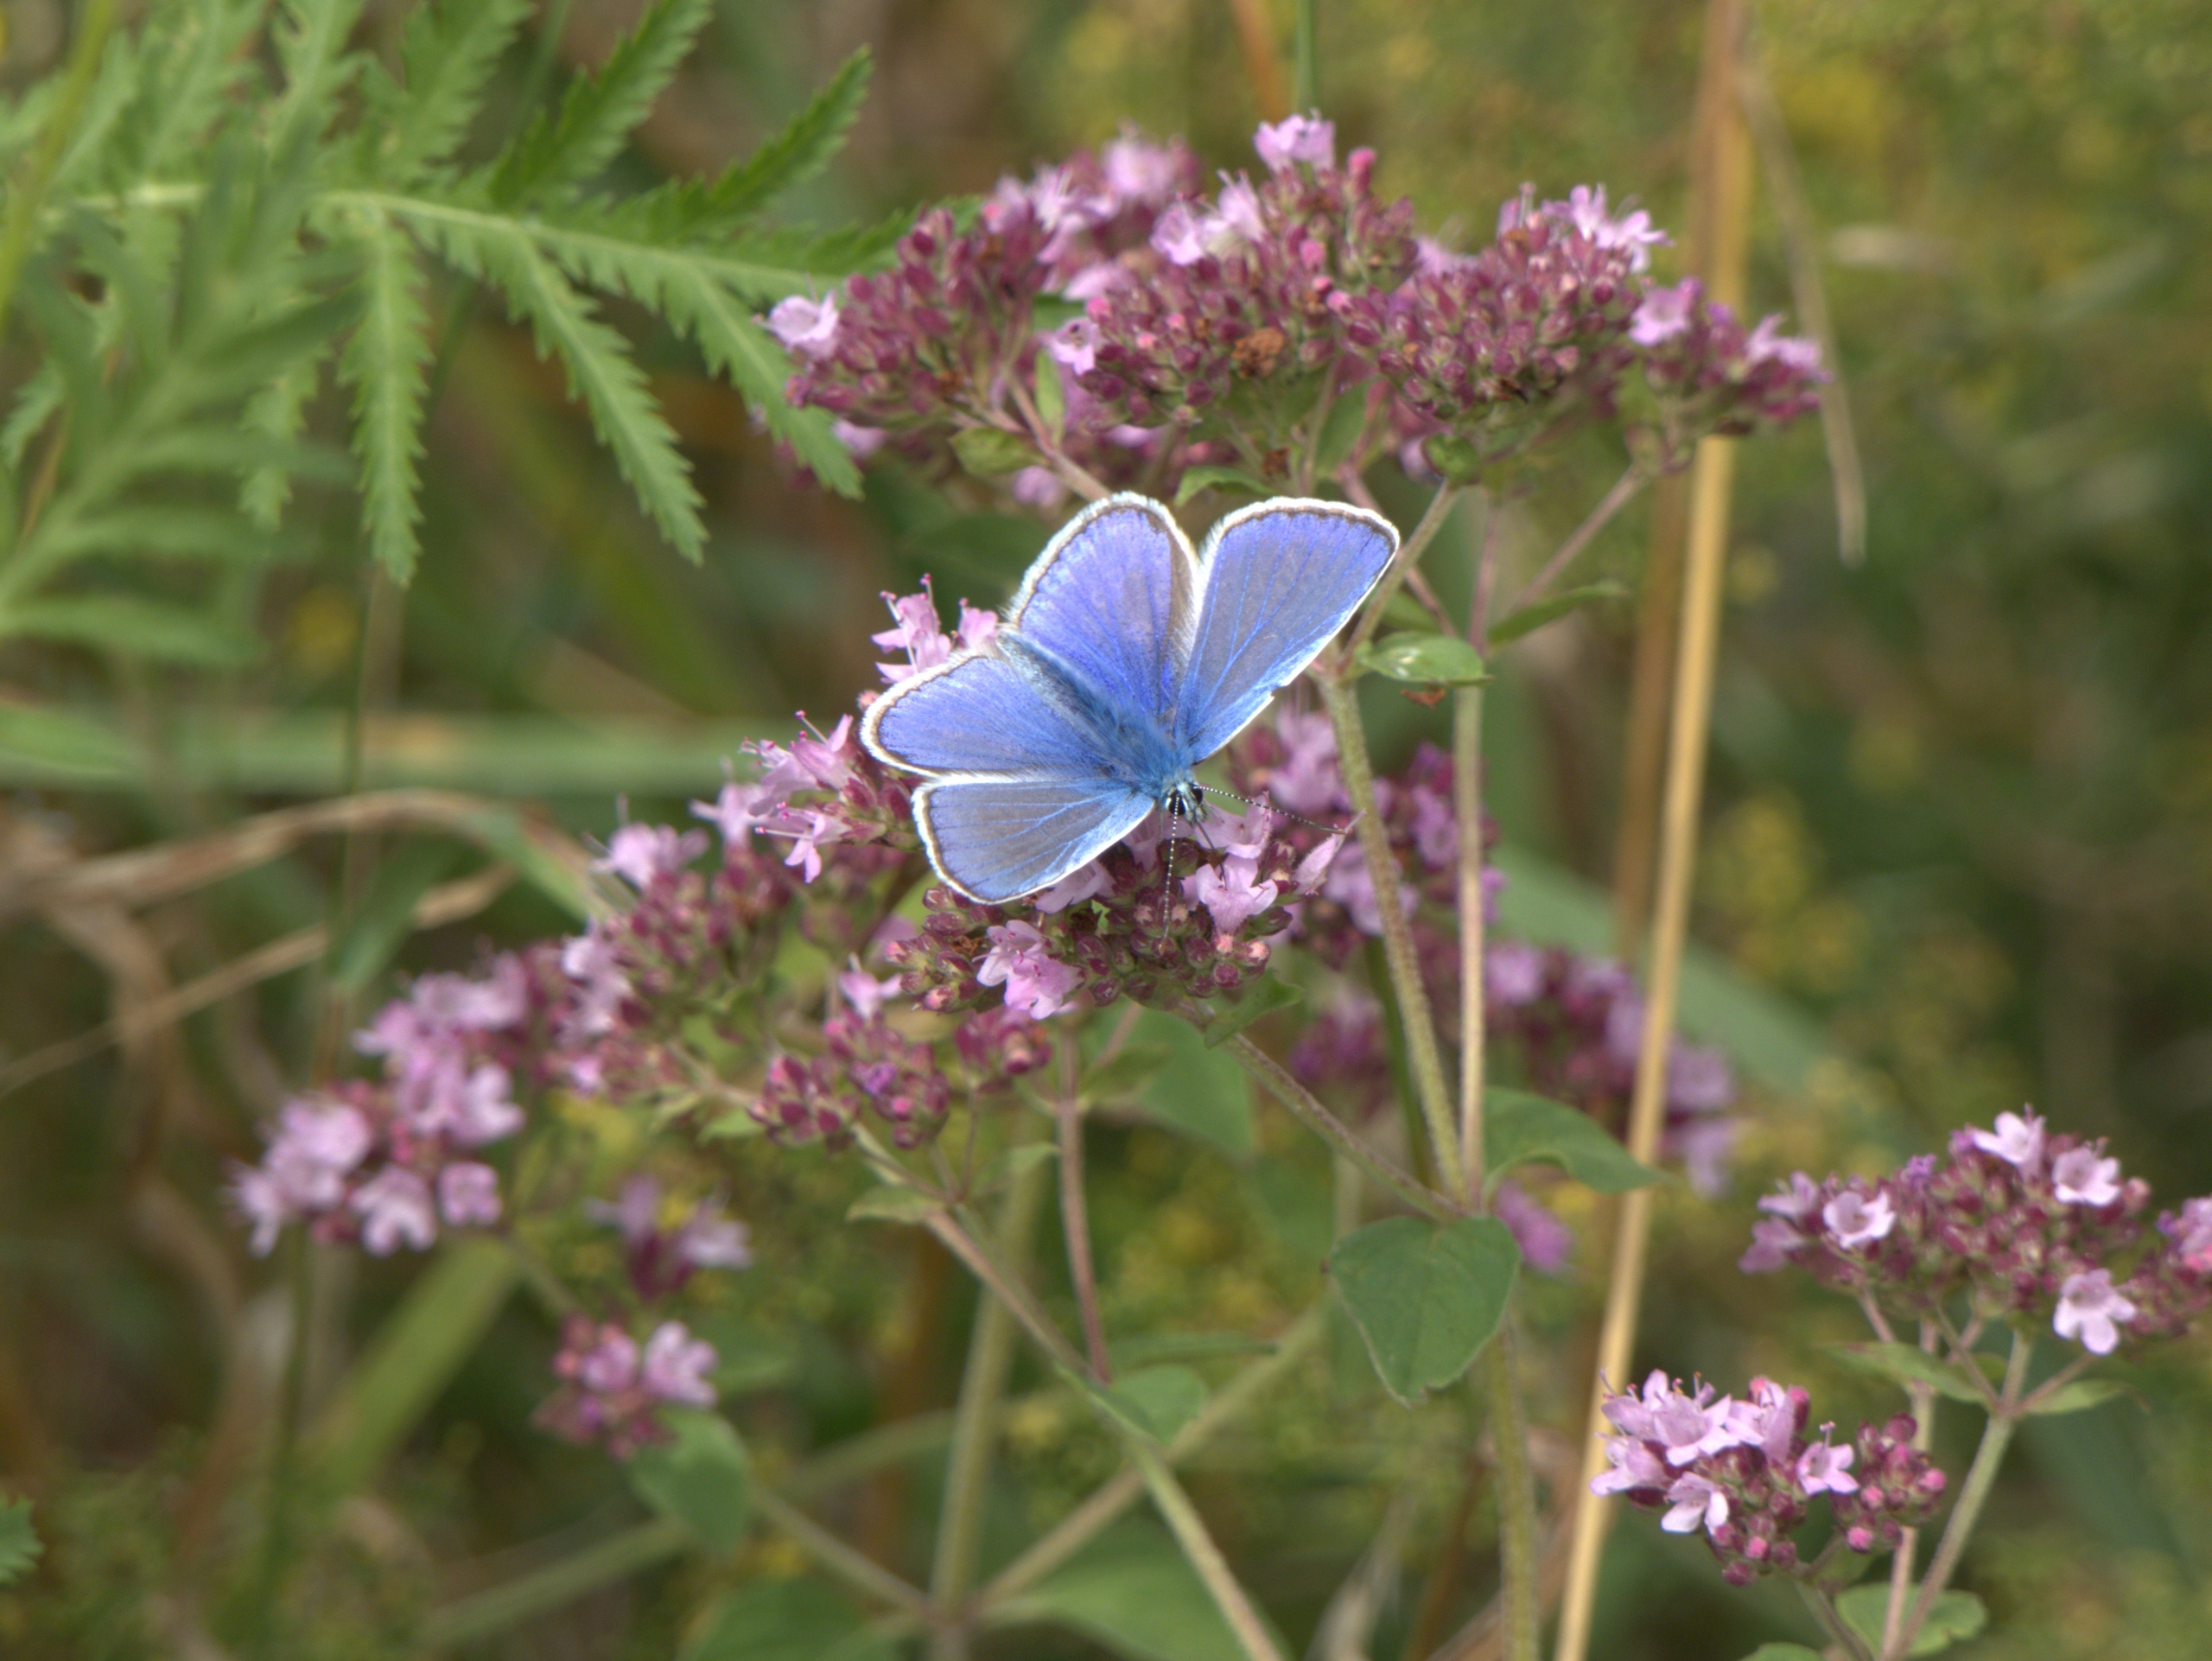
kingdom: Animalia
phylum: Arthropoda
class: Insecta
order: Lepidoptera
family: Lycaenidae
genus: Polyommatus
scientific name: Polyommatus icarus
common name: Almindelig blåfugl
